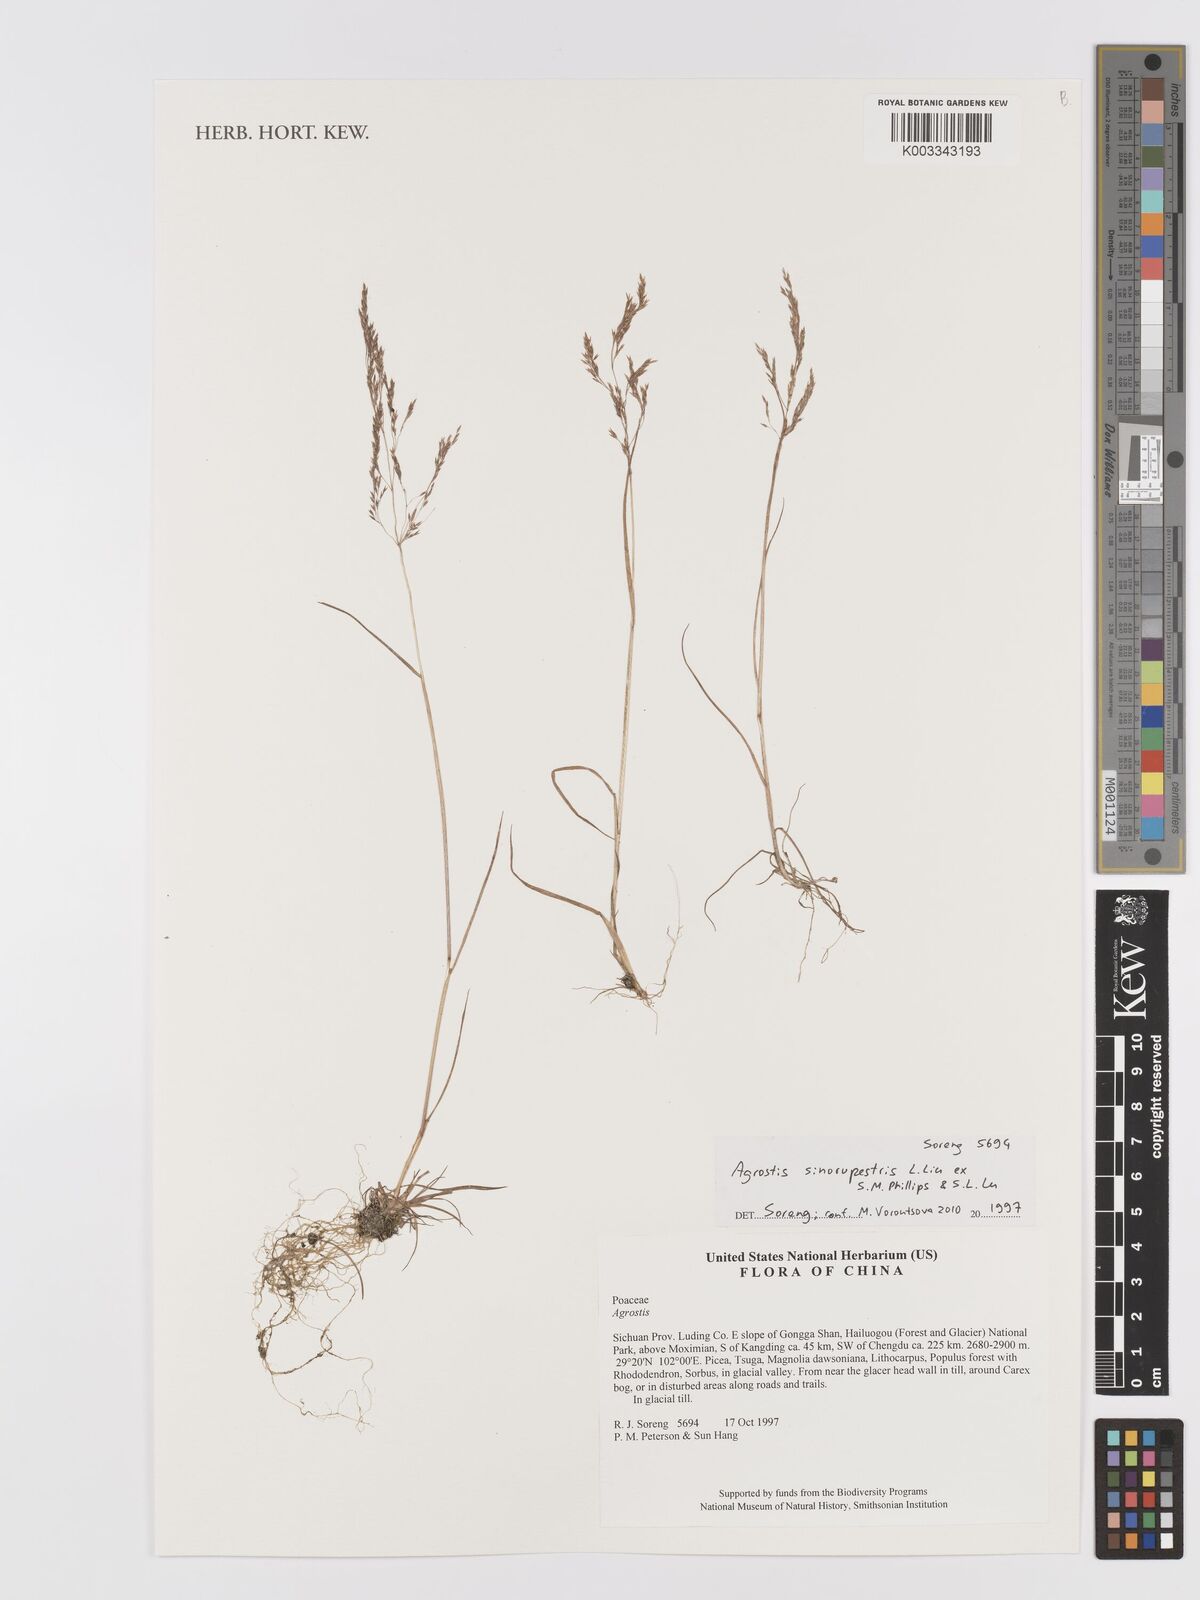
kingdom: Plantae
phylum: Tracheophyta
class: Liliopsida
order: Poales
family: Poaceae
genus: Agrostis
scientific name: Agrostis sinorupestris
